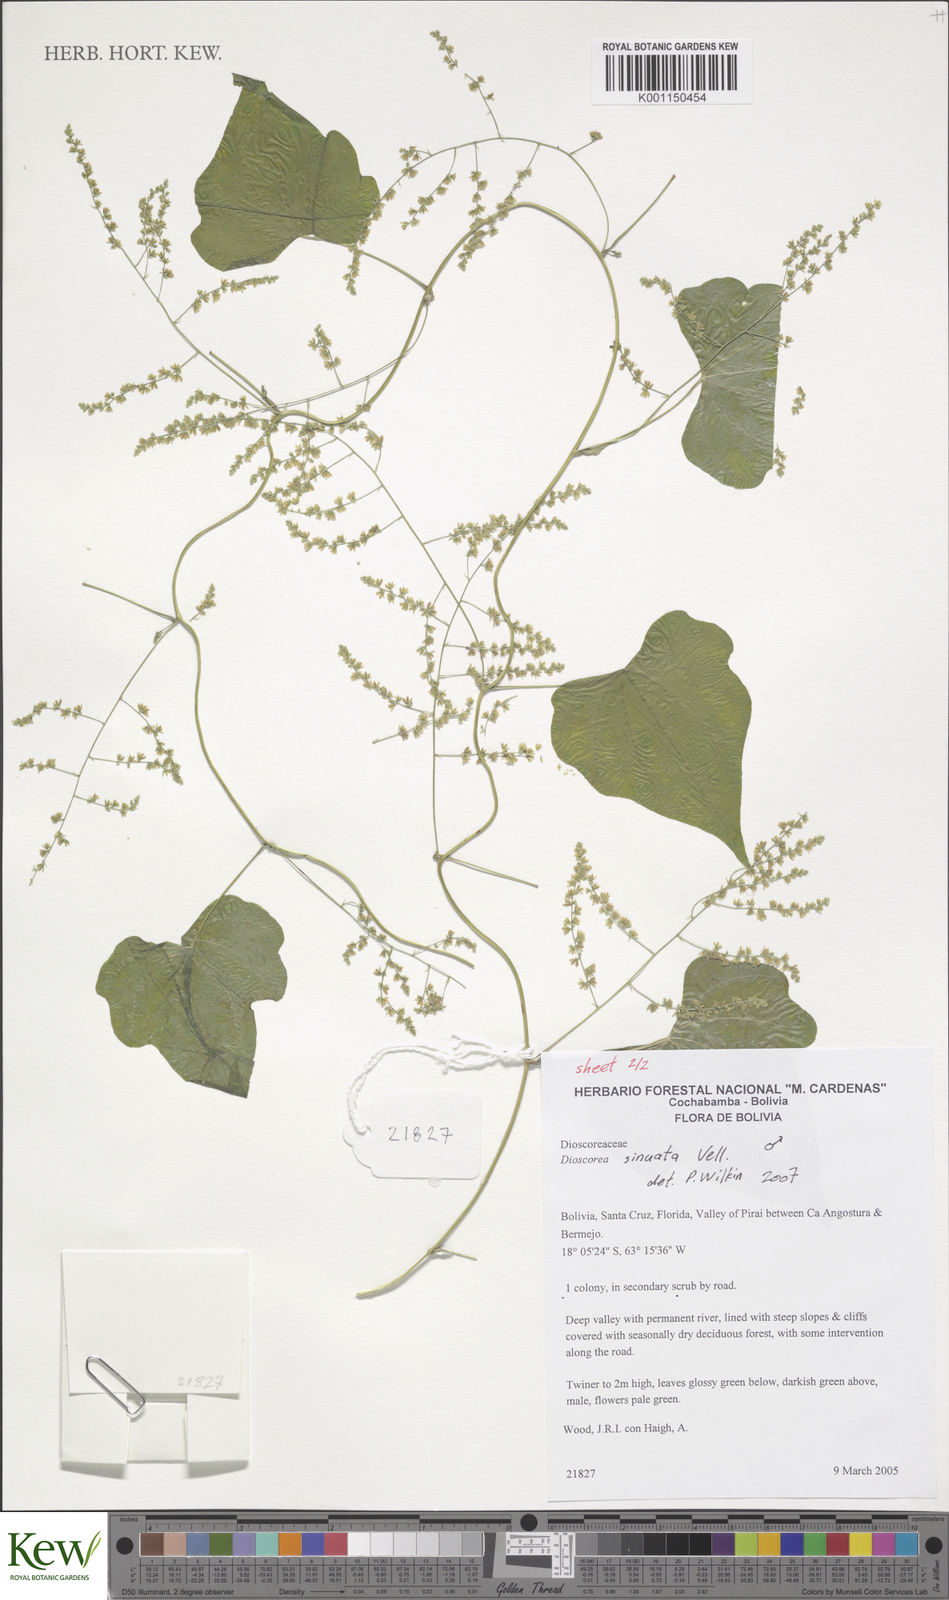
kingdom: Plantae
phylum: Tracheophyta
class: Liliopsida
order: Dioscoreales
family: Dioscoreaceae
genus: Dioscorea
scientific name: Dioscorea sinuata
